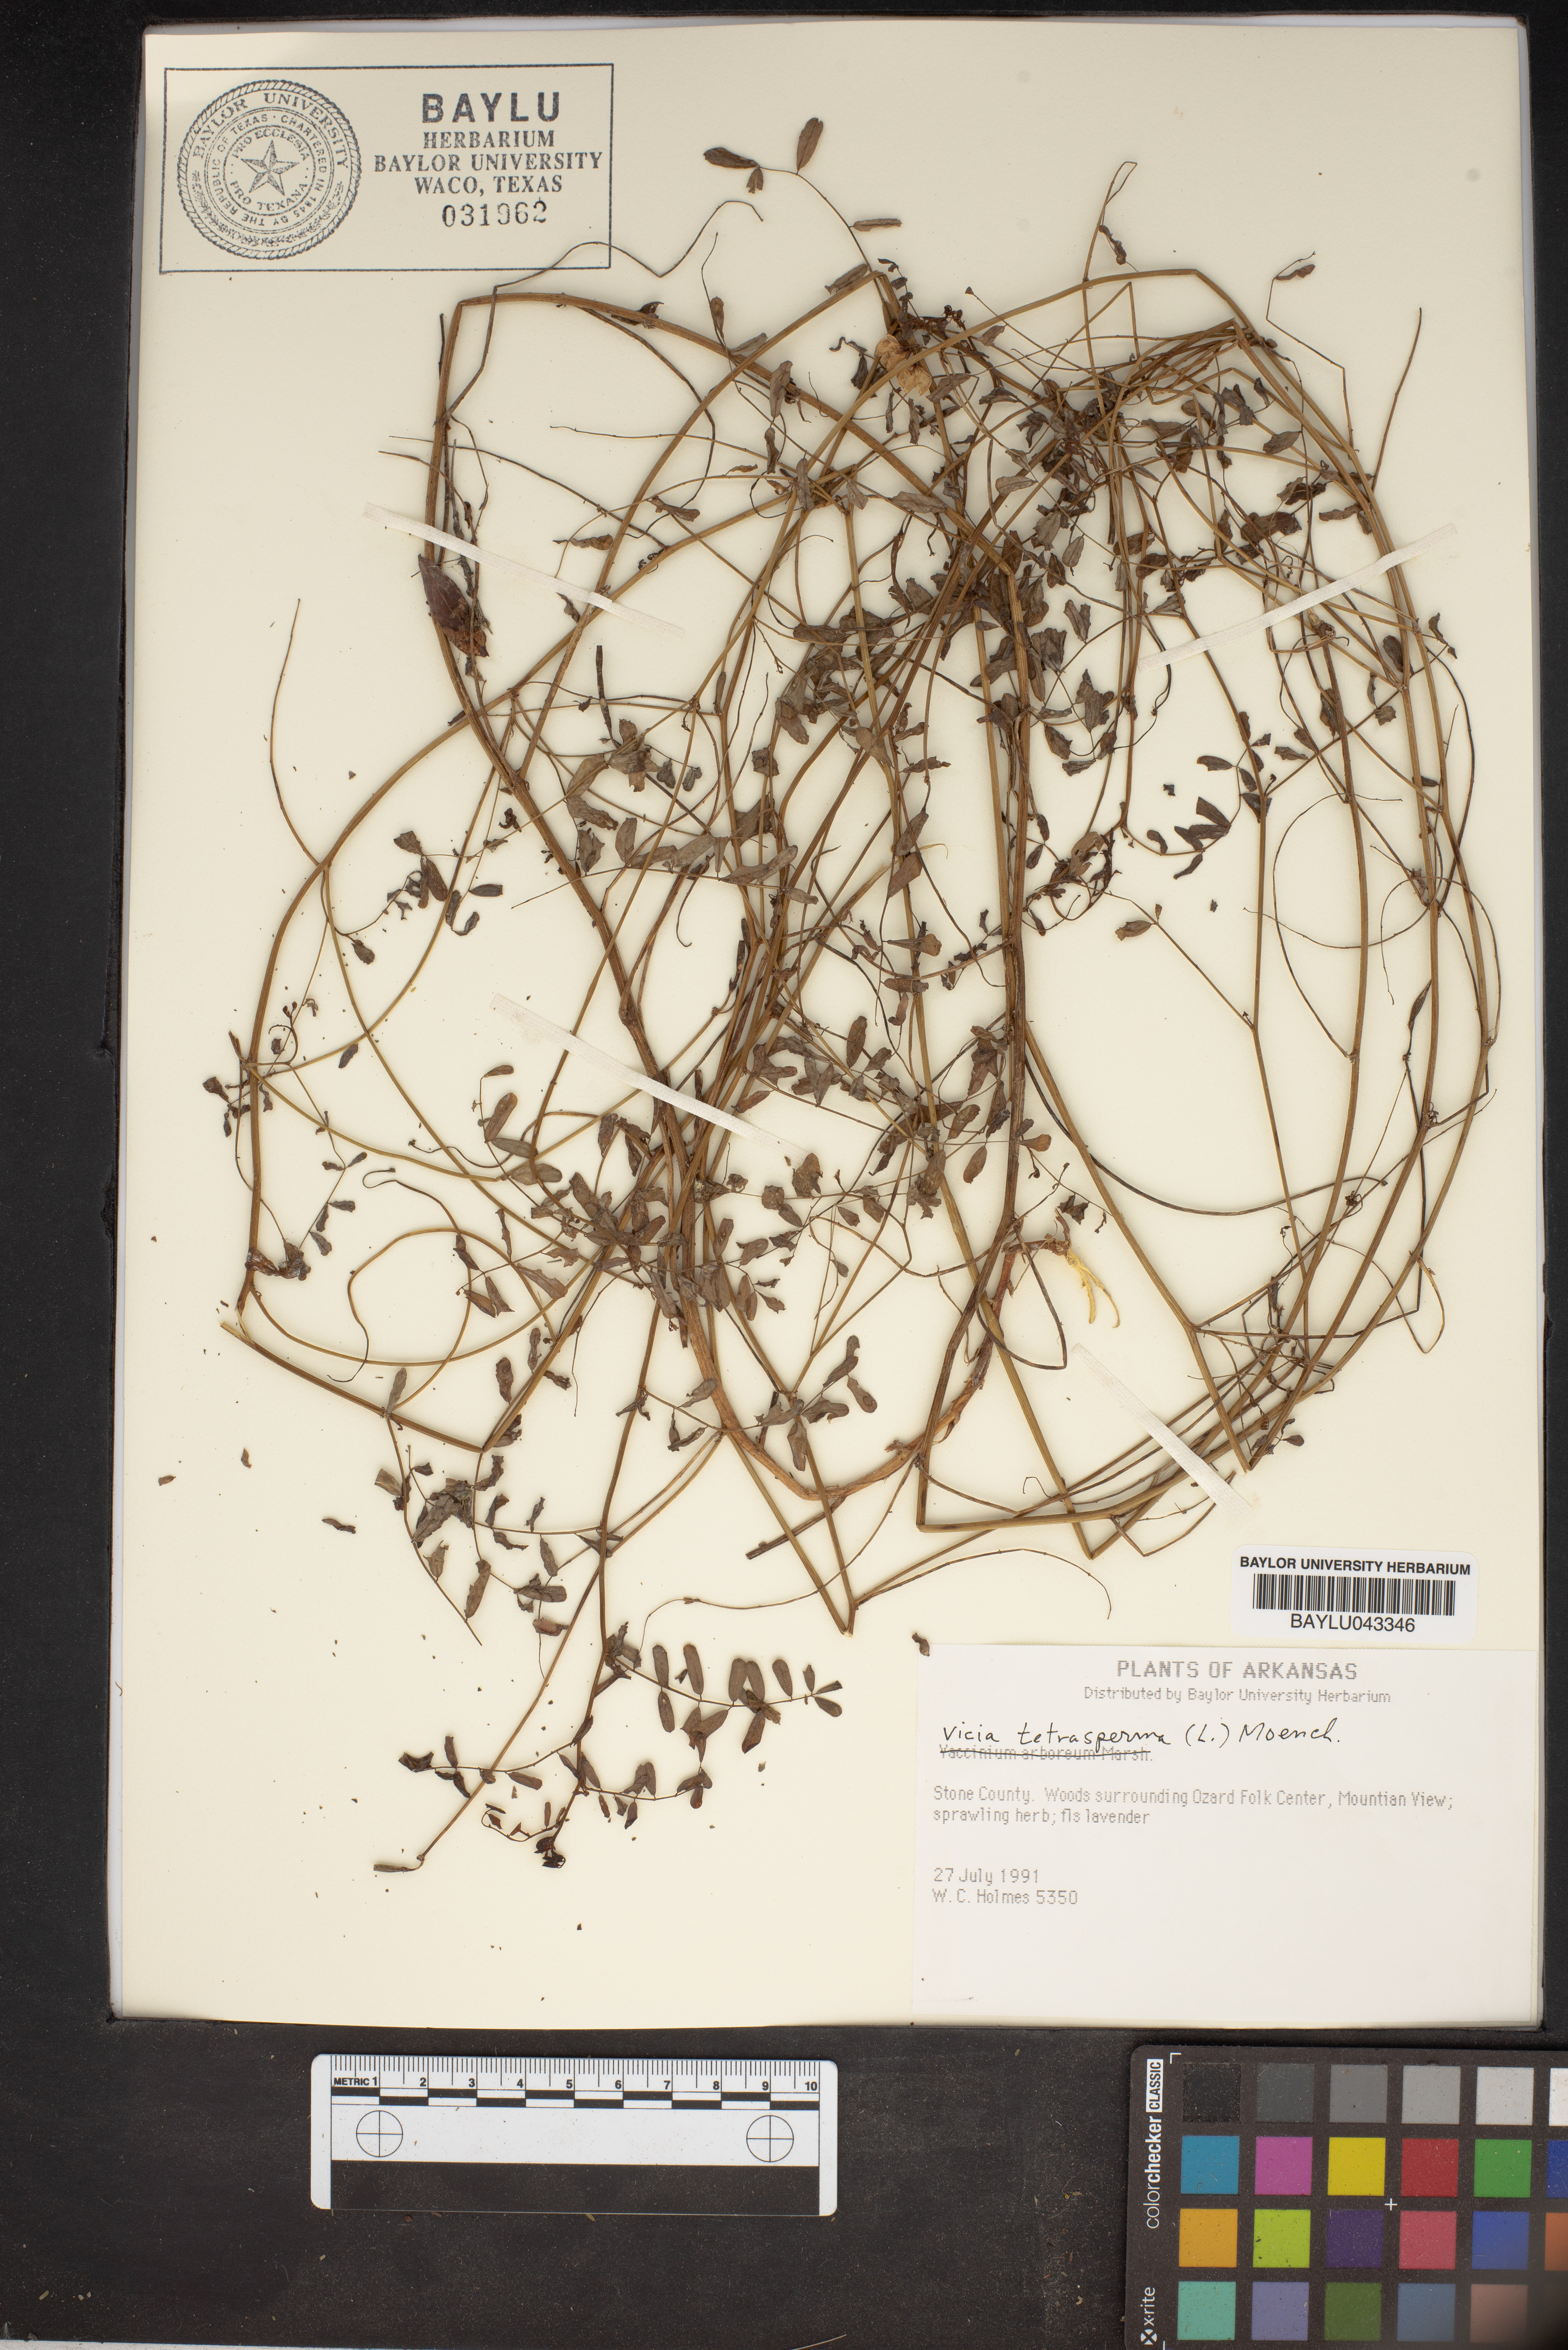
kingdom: Plantae
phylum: Tracheophyta
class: Magnoliopsida
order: Fabales
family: Fabaceae
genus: Vicia
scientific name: Vicia tetrasperma
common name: Smooth tare
